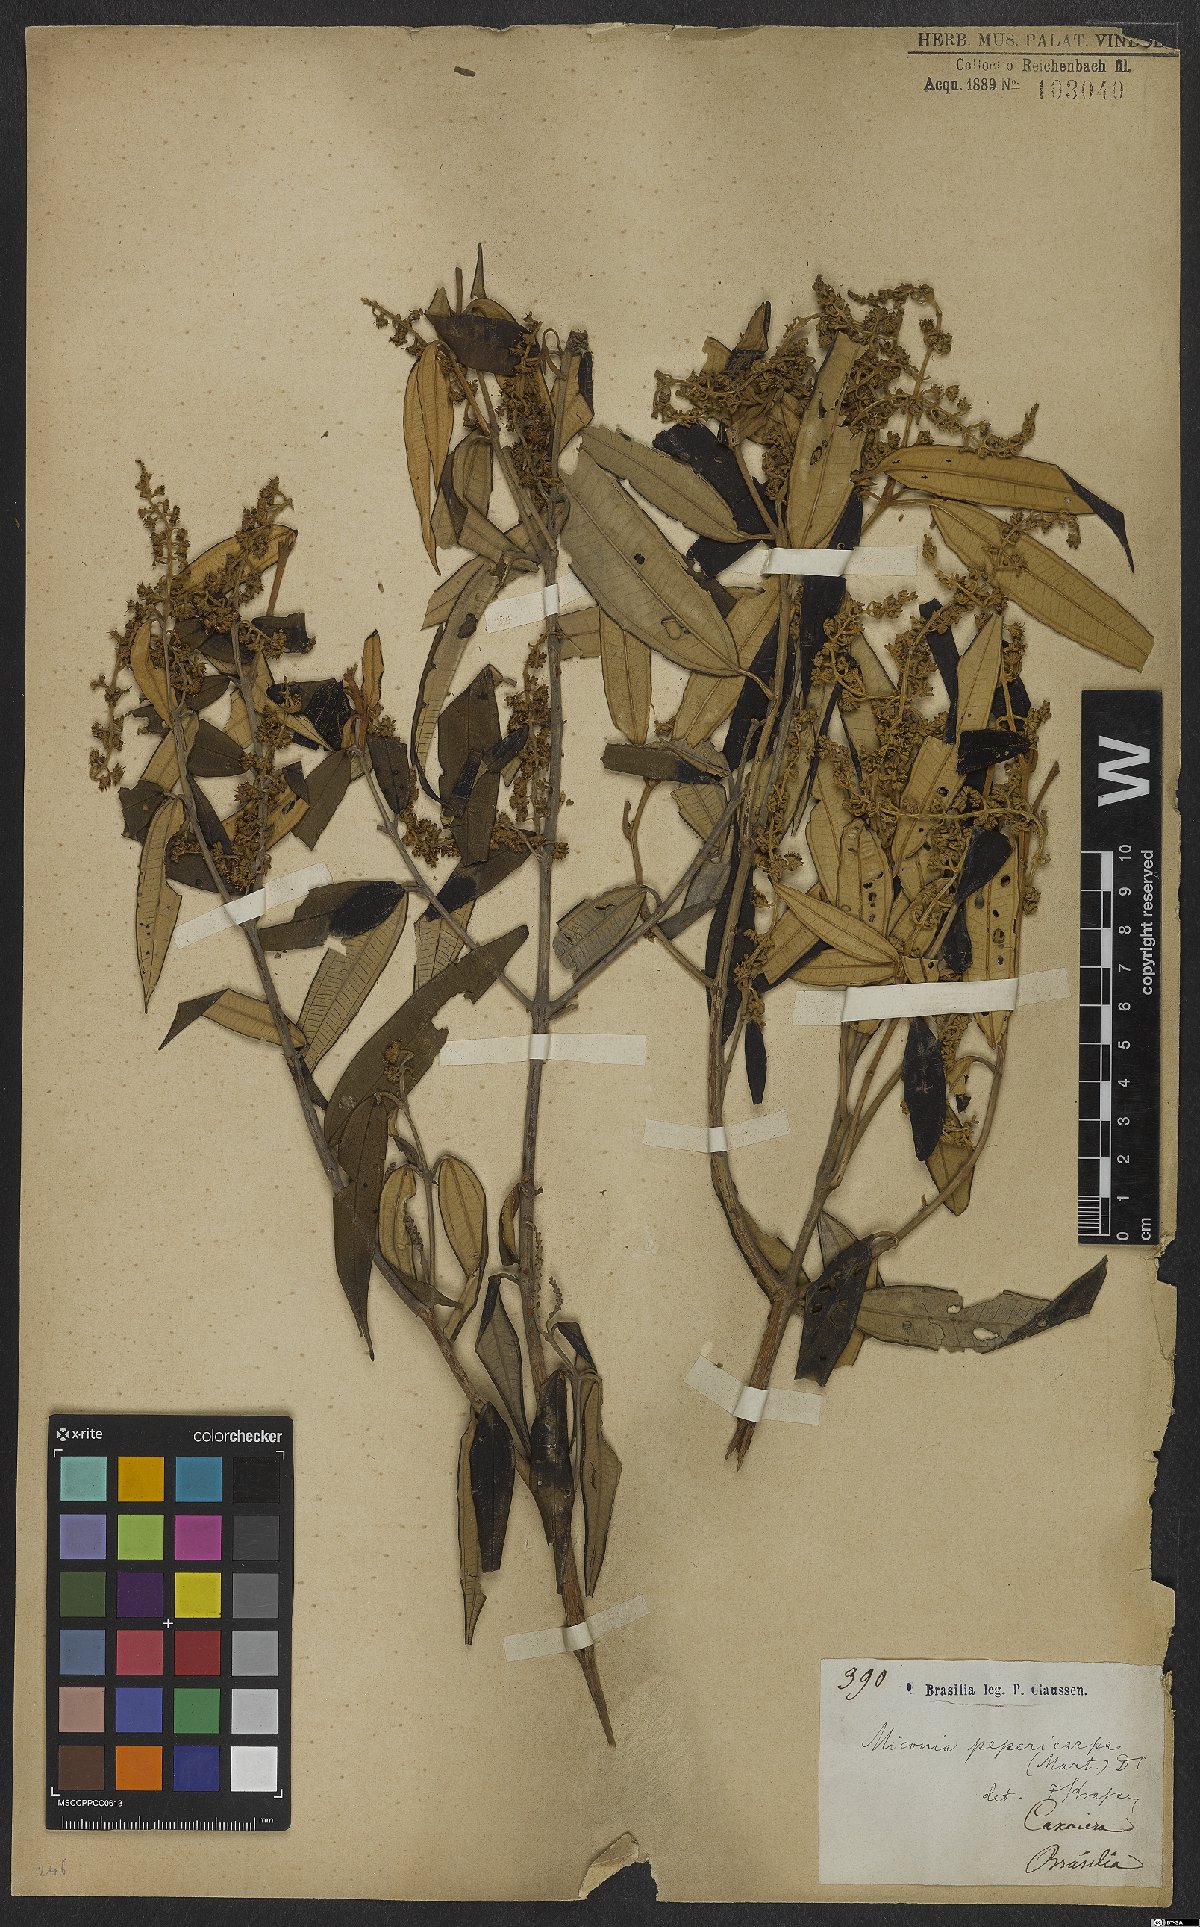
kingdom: Plantae
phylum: Tracheophyta
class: Magnoliopsida
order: Myrtales
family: Melastomataceae
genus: Miconia
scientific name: Miconia pepericarpa
